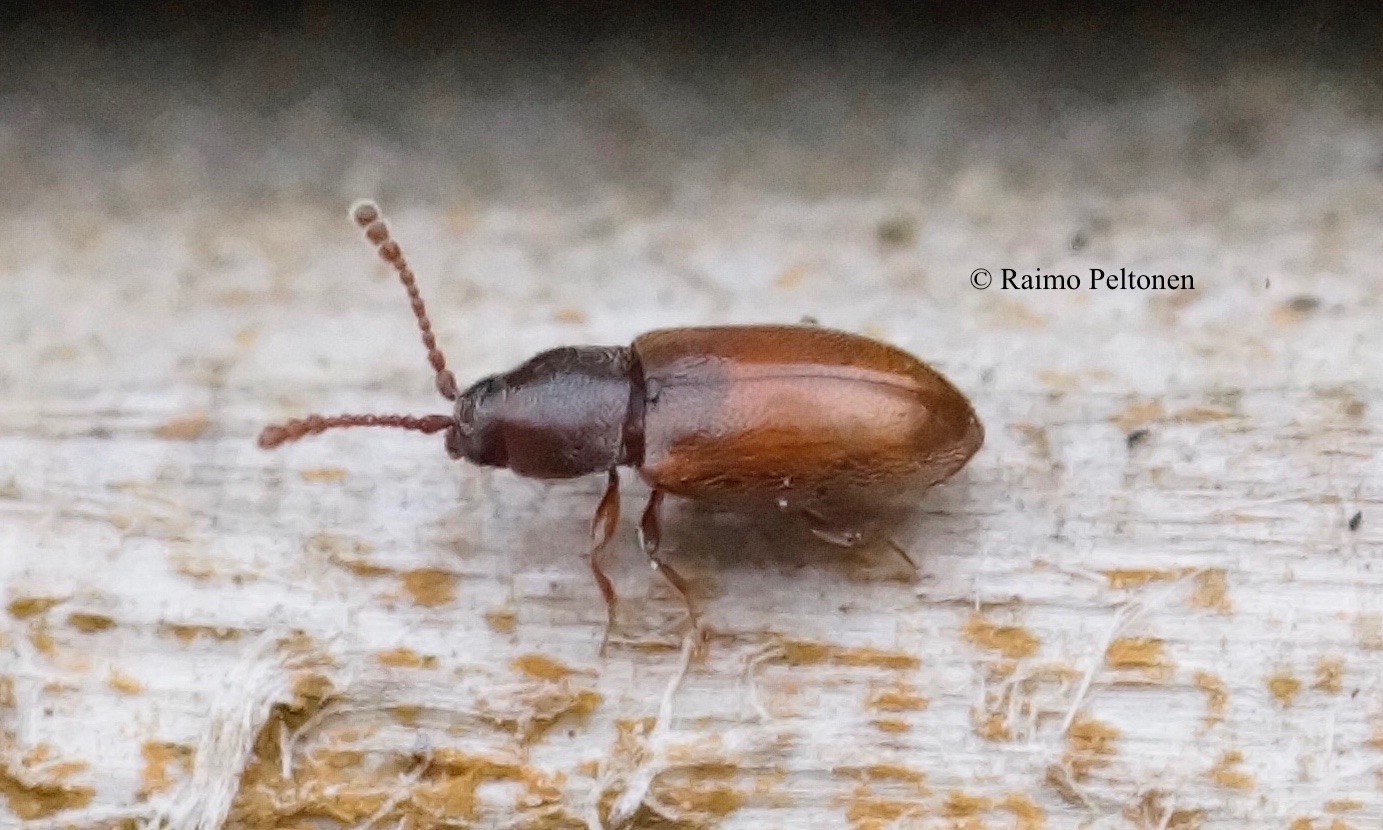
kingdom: Animalia
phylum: Arthropoda
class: Insecta
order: Coleoptera
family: Cryptophagidae
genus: Atomaria
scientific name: Atomaria
